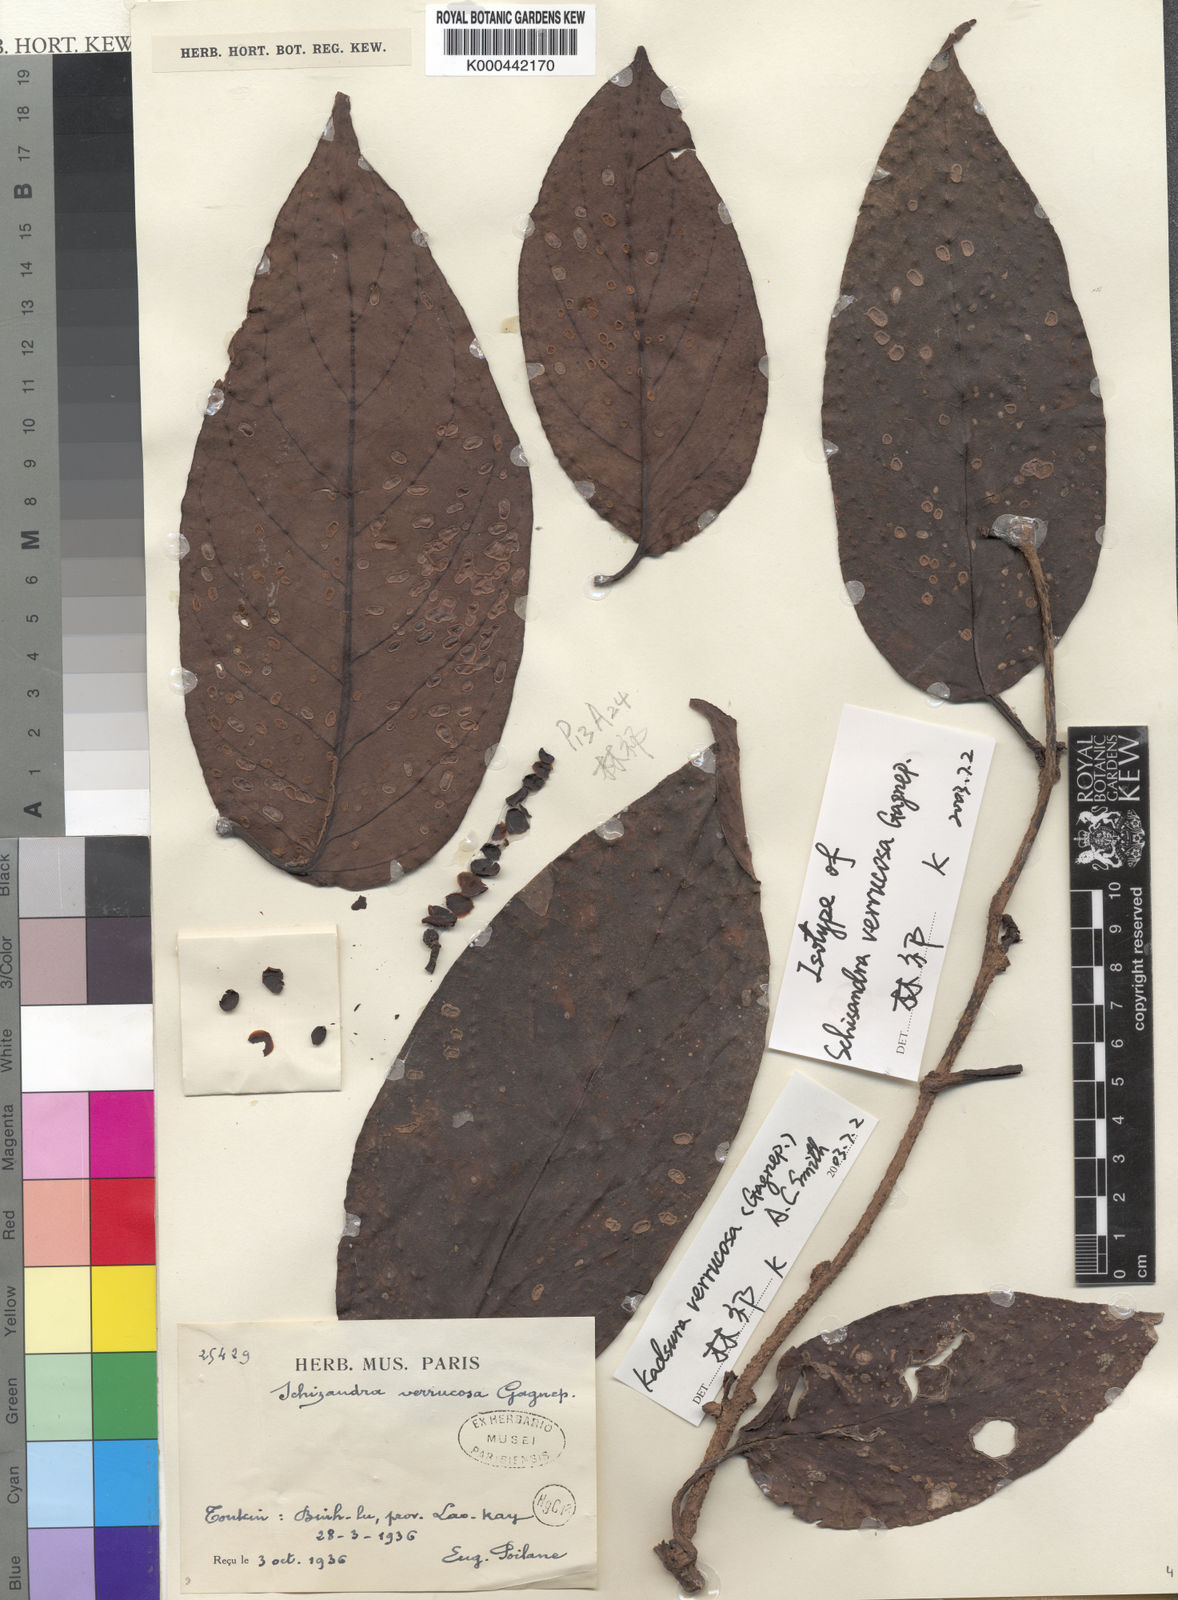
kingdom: Plantae
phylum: Tracheophyta
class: Magnoliopsida
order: Austrobaileyales
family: Schisandraceae
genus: Kadsura
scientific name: Kadsura verrucosa
